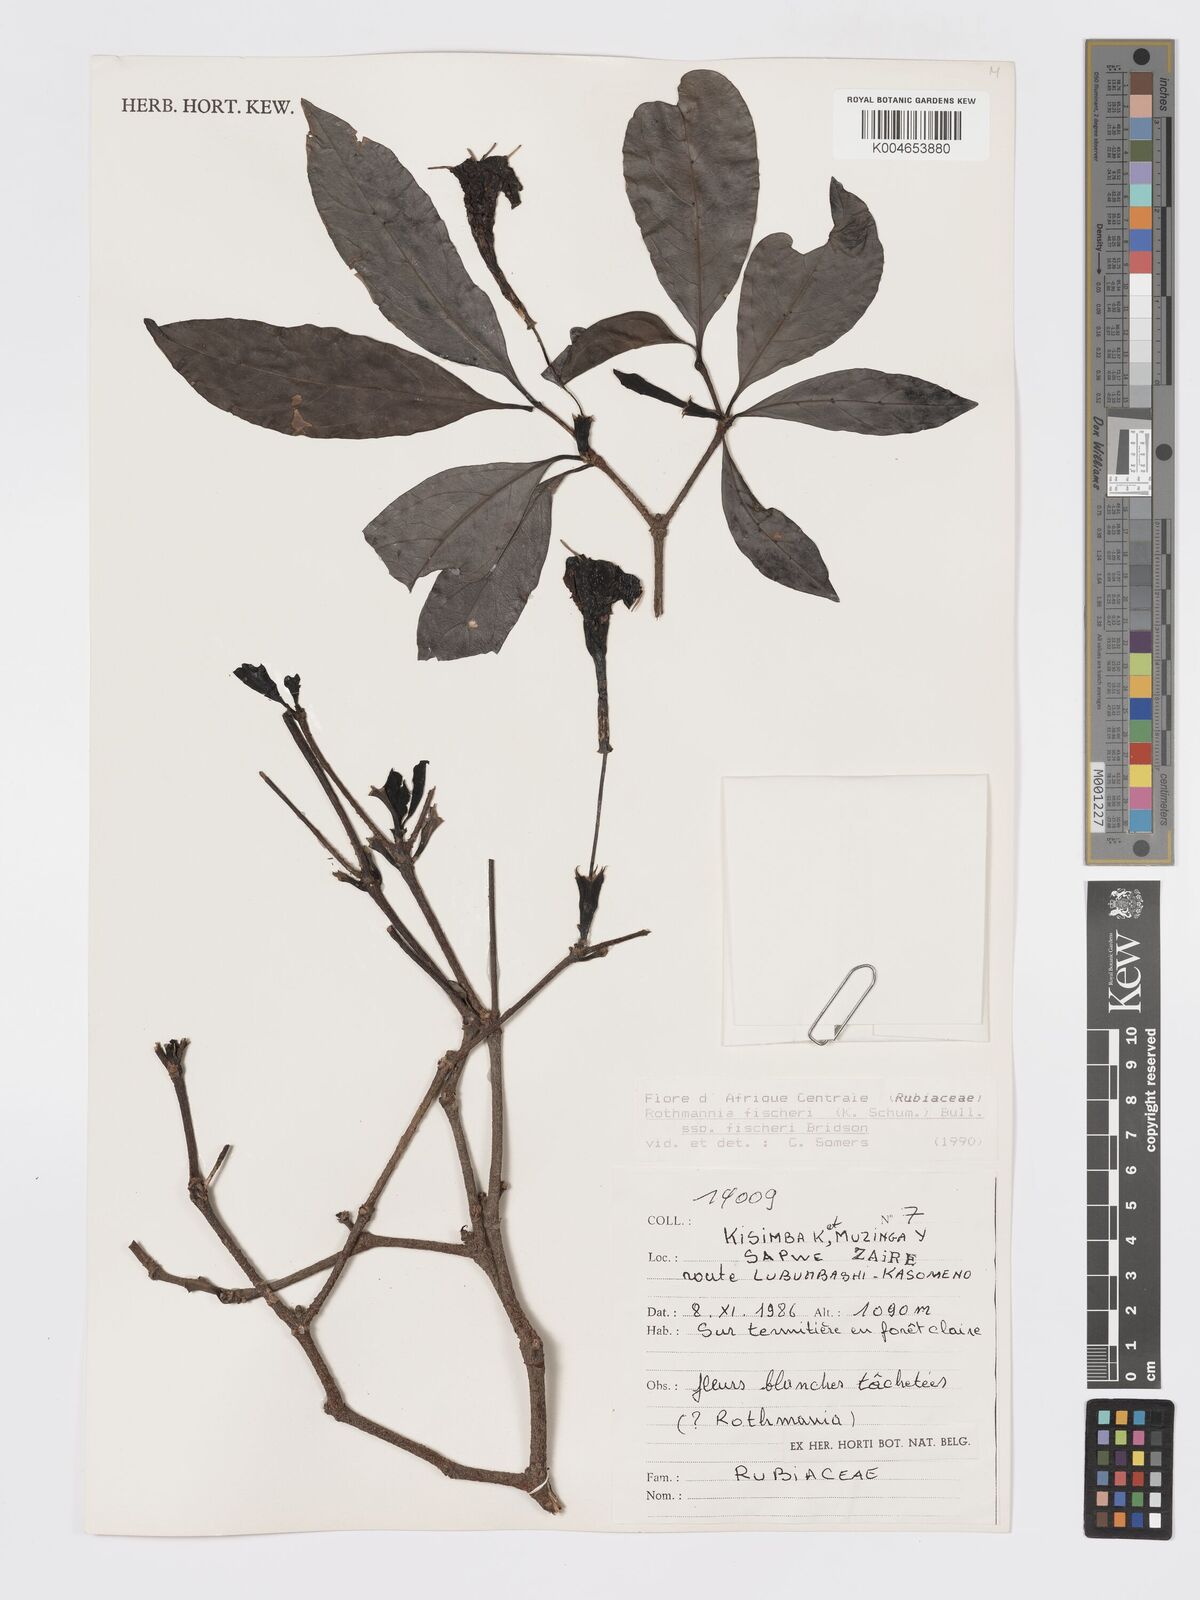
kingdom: Plantae
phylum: Tracheophyta
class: Magnoliopsida
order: Gentianales
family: Rubiaceae
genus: Rothmannia
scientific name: Rothmannia fischeri
